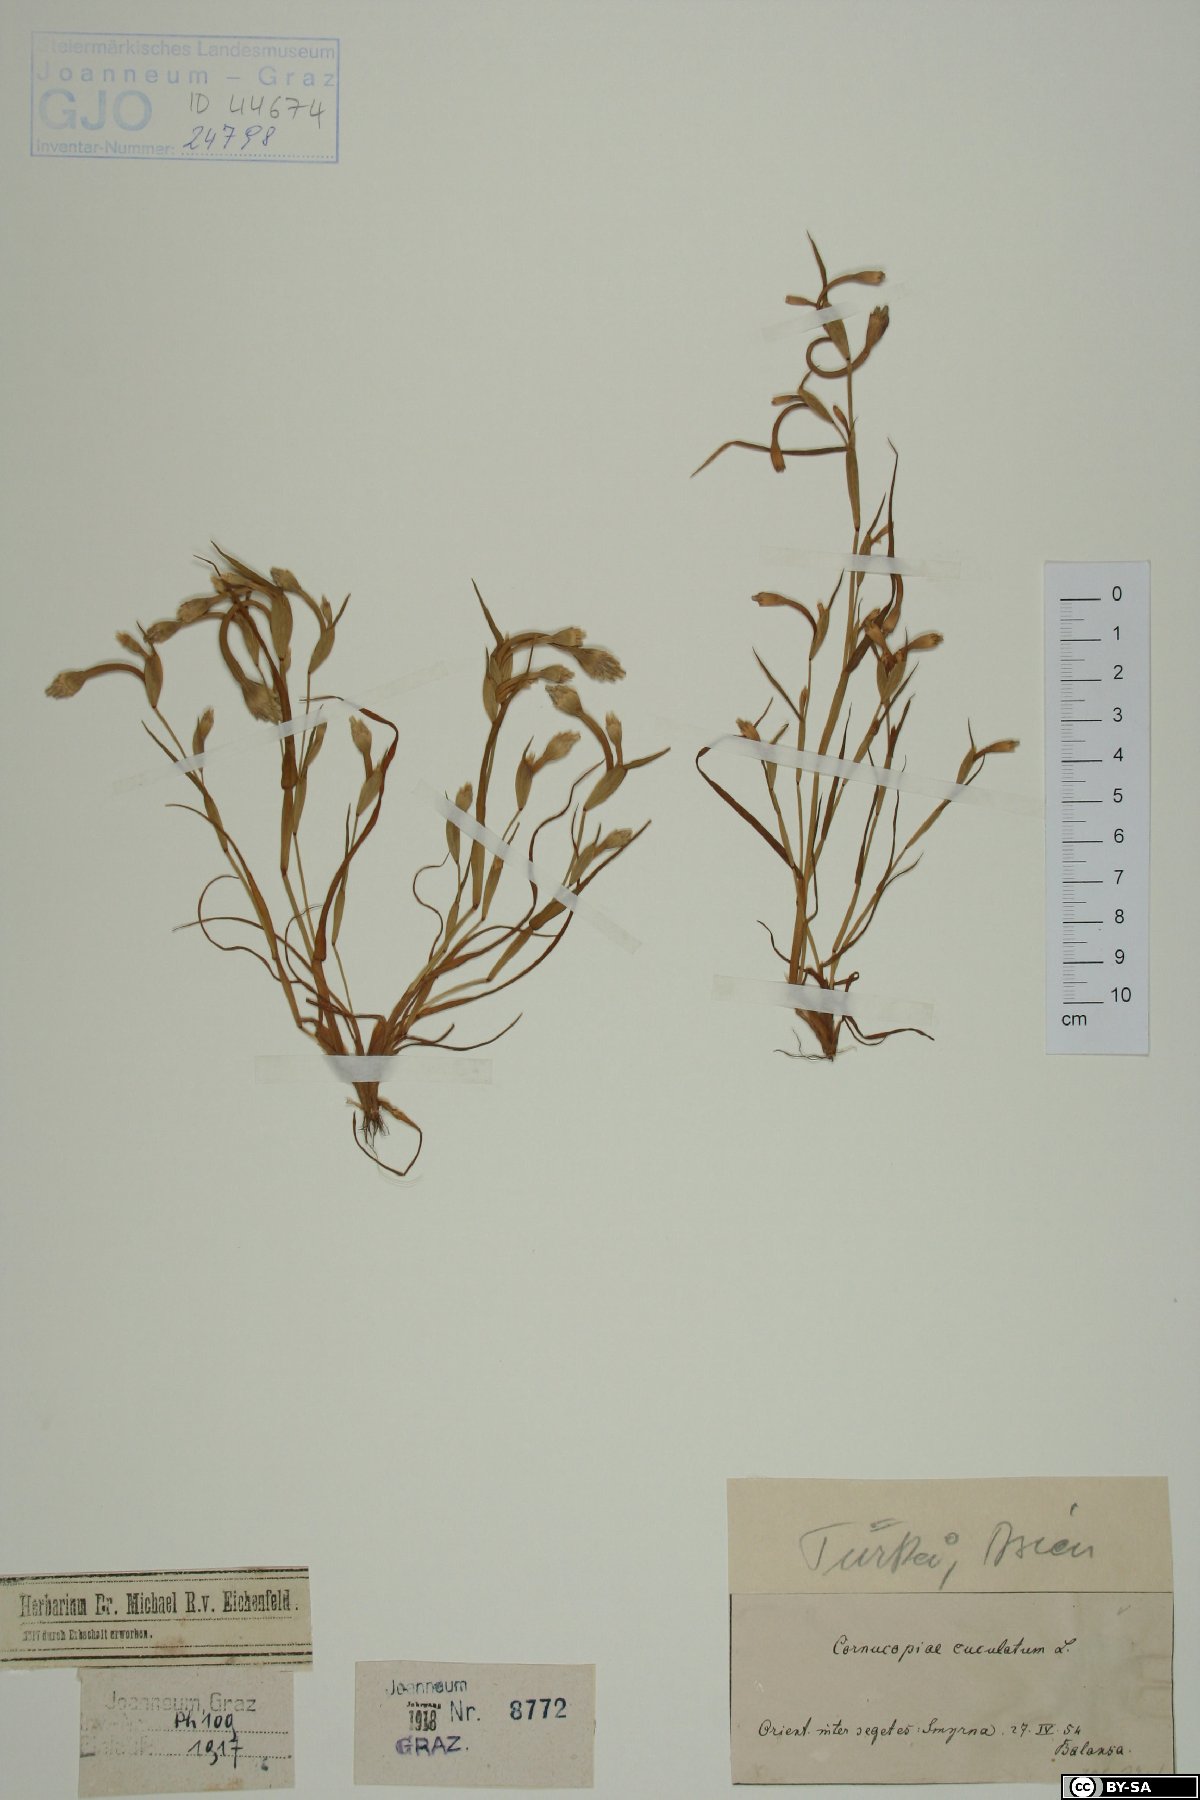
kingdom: Plantae
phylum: Tracheophyta
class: Liliopsida
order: Poales
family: Poaceae
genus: Cornucopiae
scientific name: Cornucopiae cucullatum
